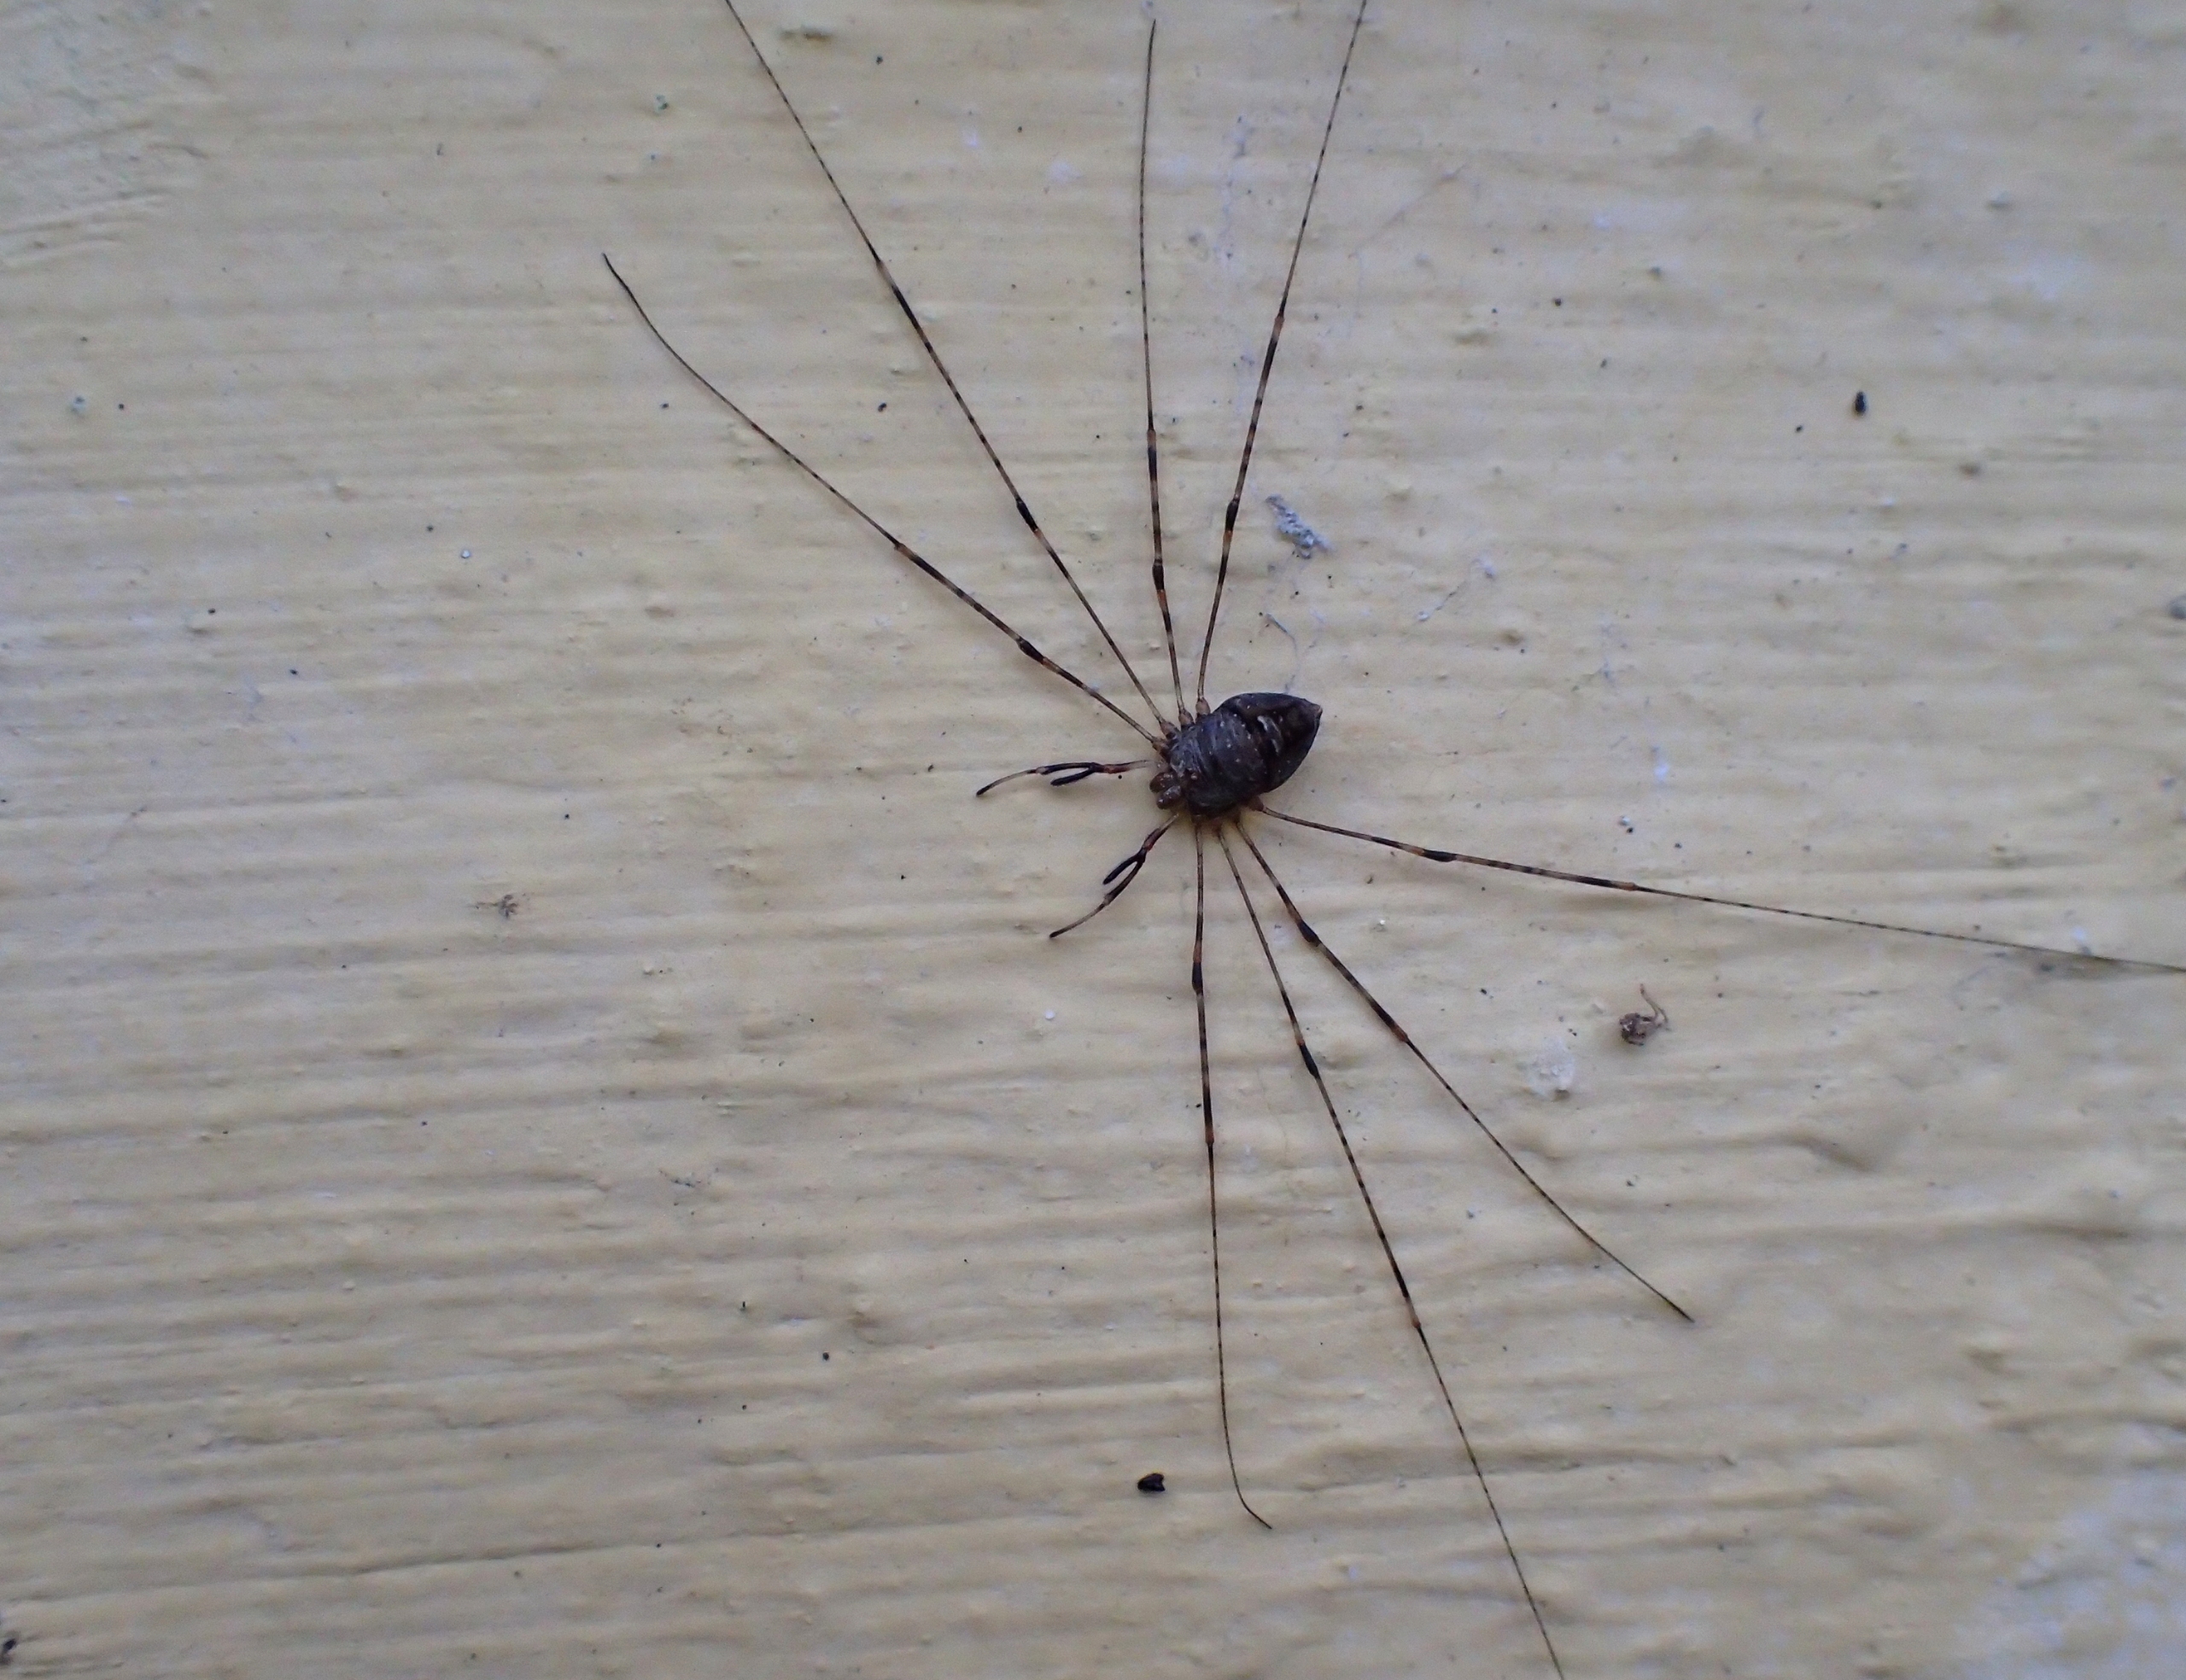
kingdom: Animalia
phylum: Arthropoda
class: Arachnida
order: Opiliones
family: Phalangiidae
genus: Dicranopalpus
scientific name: Dicranopalpus ramosus
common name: Gaffelmejer
